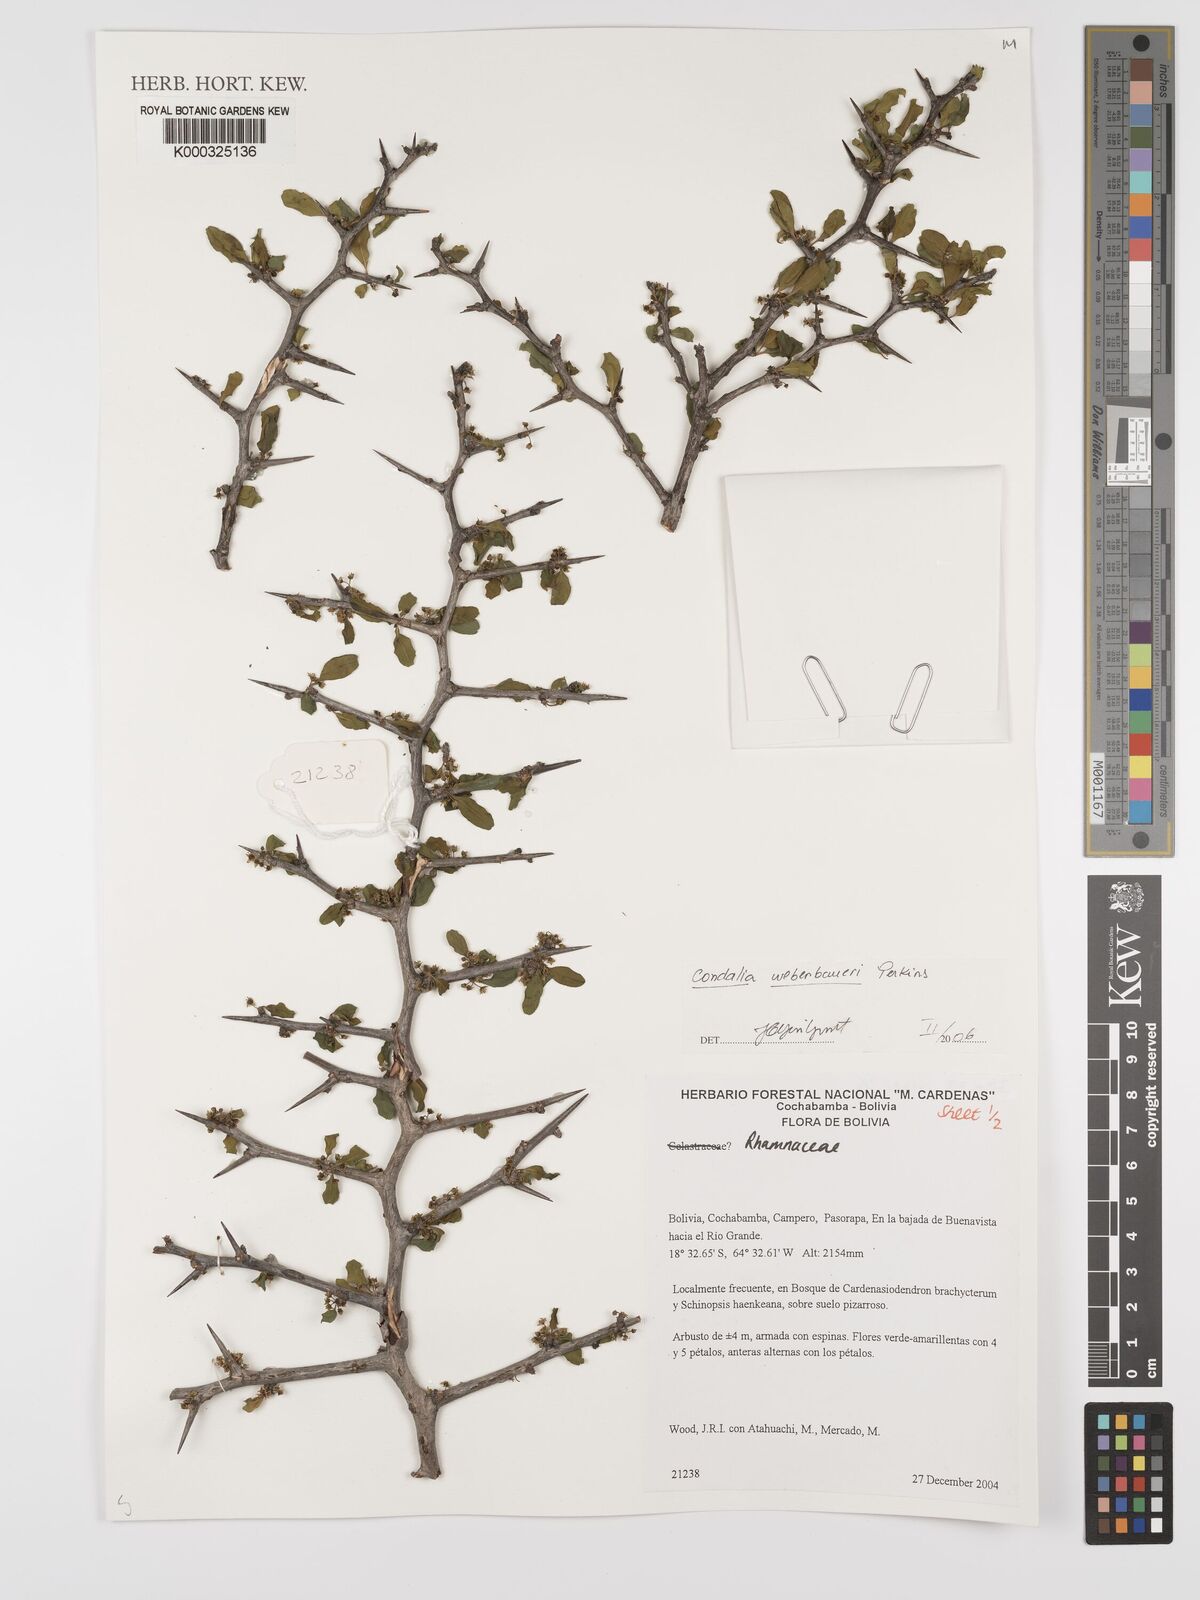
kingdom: Plantae
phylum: Tracheophyta
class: Magnoliopsida
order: Rosales
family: Rhamnaceae
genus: Condalia
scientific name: Condalia weberbaueri
